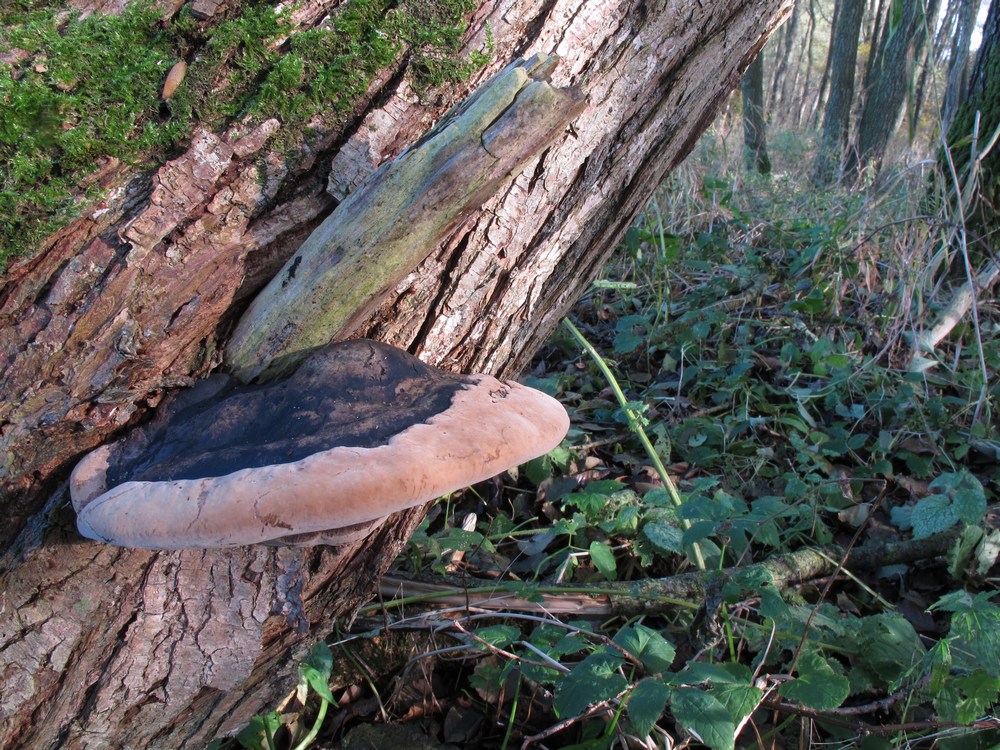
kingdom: Fungi
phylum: Basidiomycota
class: Agaricomycetes
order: Hymenochaetales
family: Hymenochaetaceae
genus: Phellinus
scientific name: Phellinus igniarius
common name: almindelig ildporesvamp
